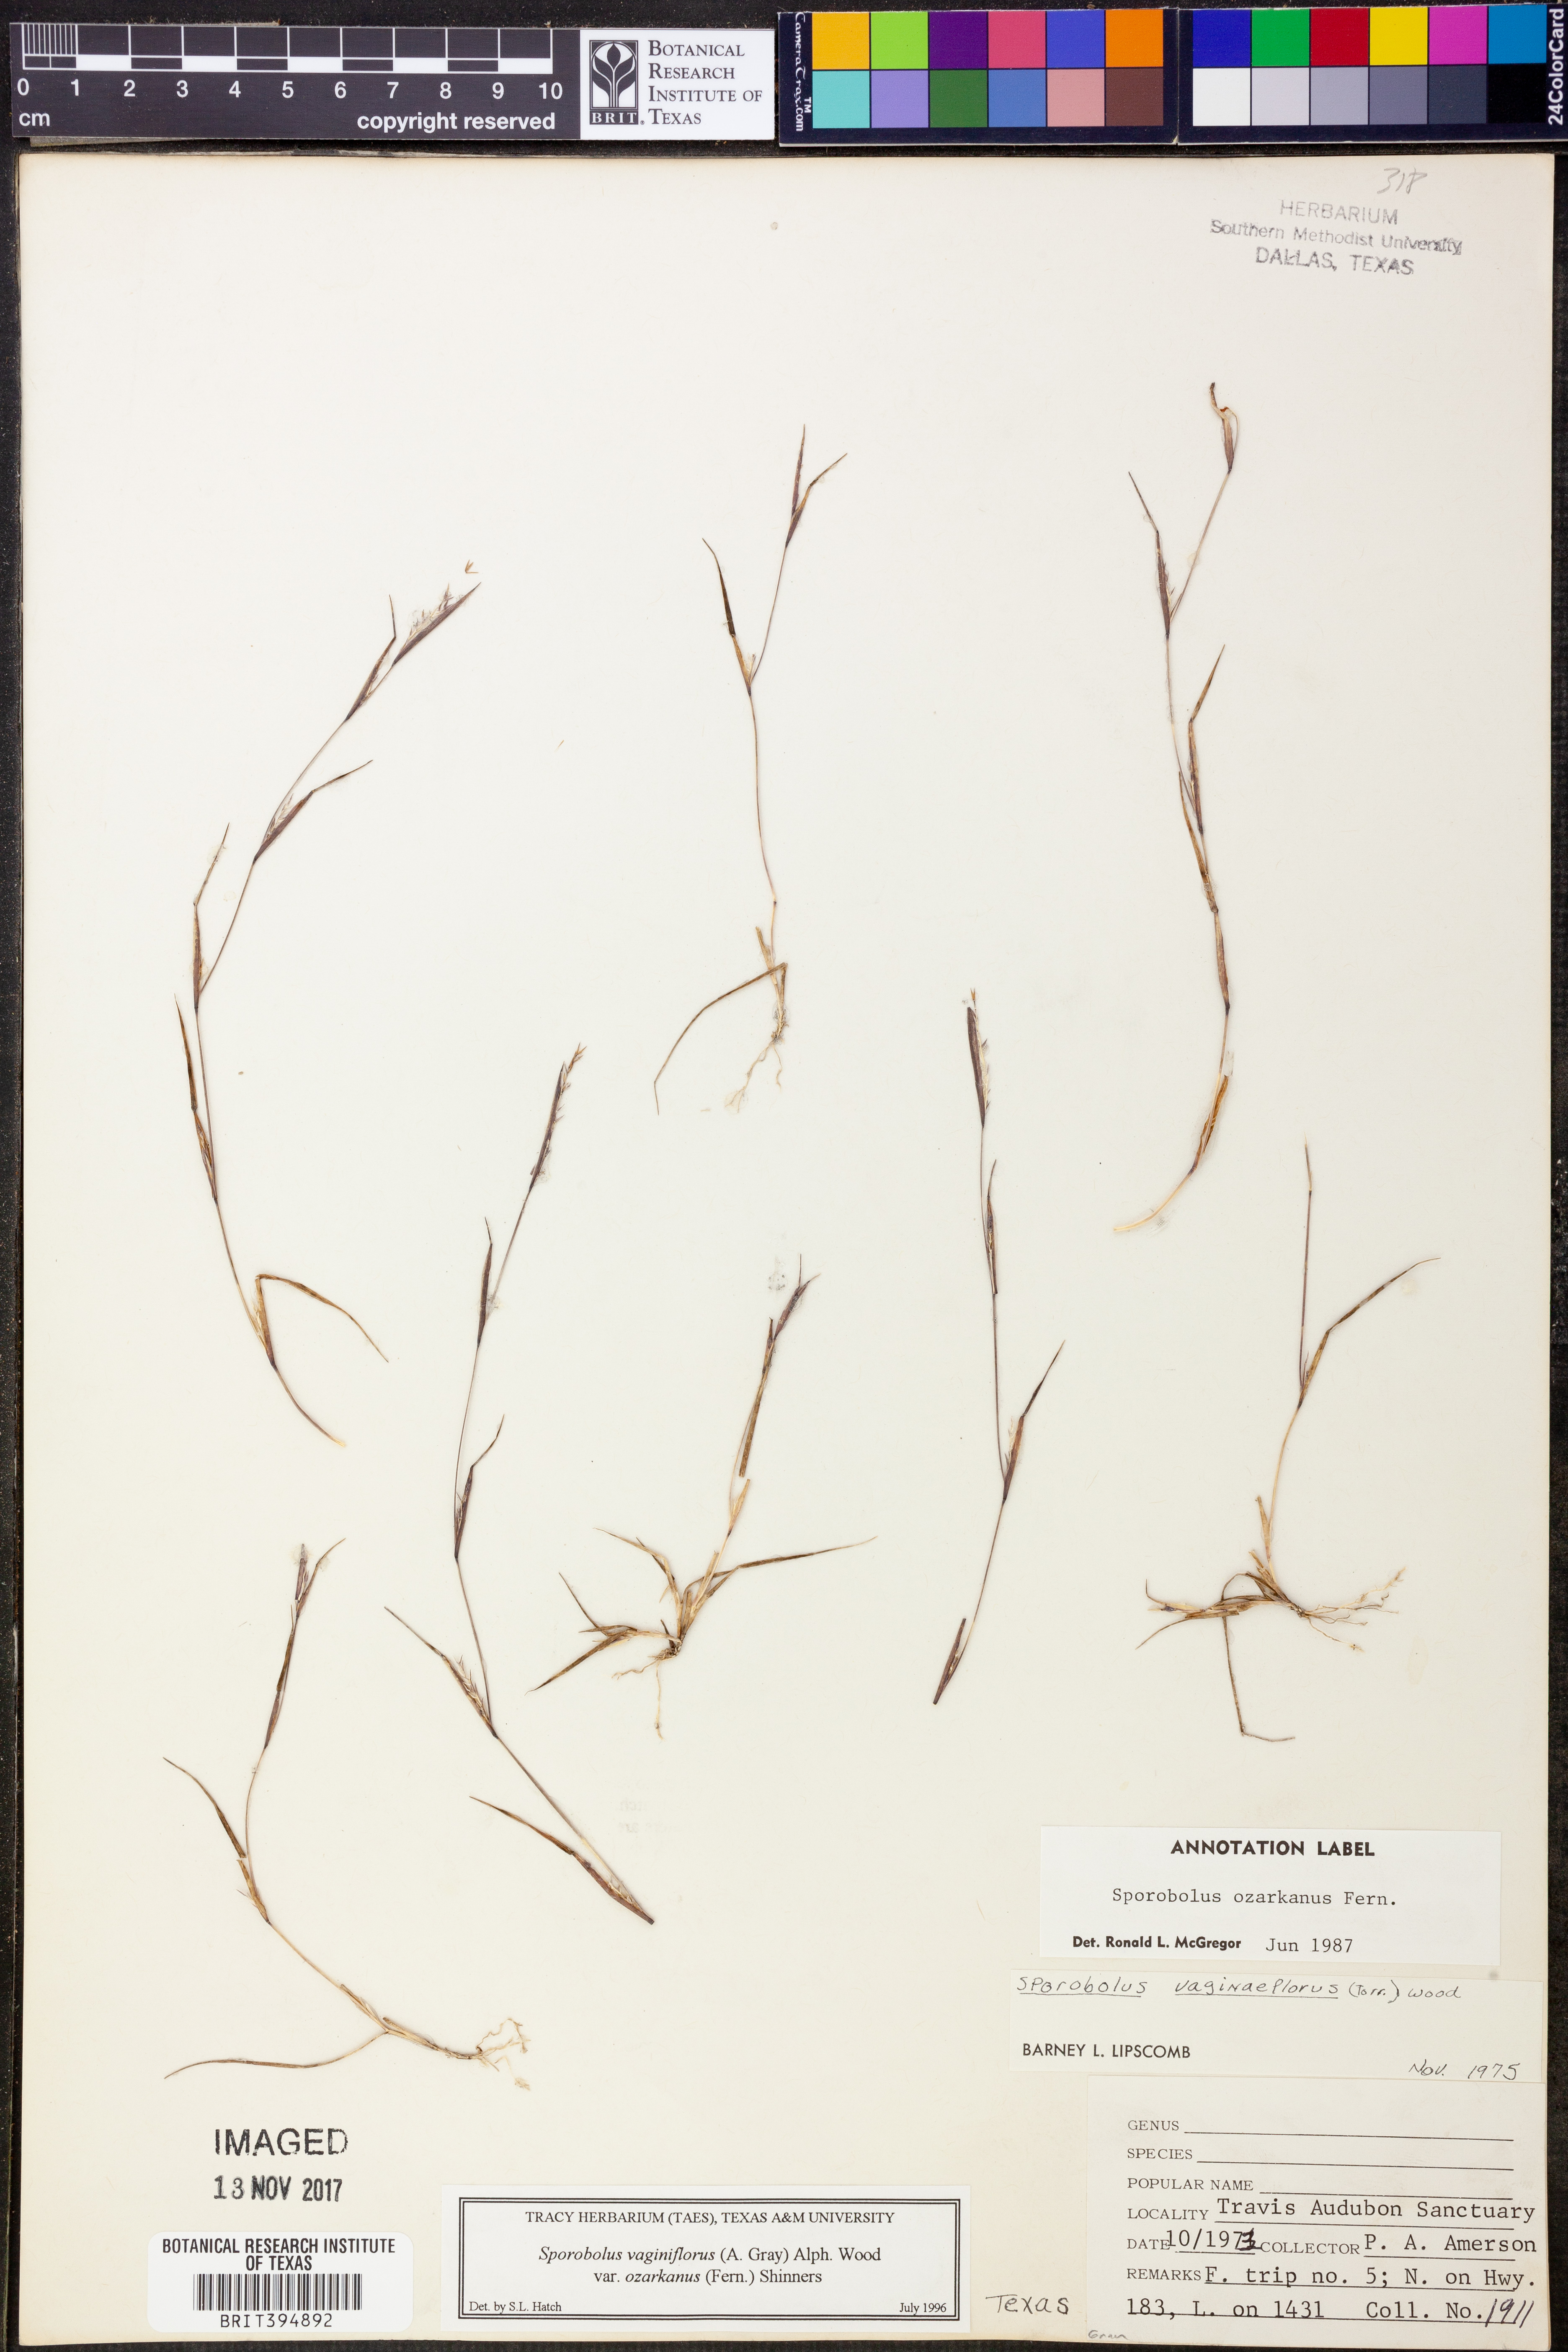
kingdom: Plantae
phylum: Tracheophyta
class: Liliopsida
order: Poales
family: Poaceae
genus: Sporobolus
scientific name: Sporobolus neglectus
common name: Annual dropseed
